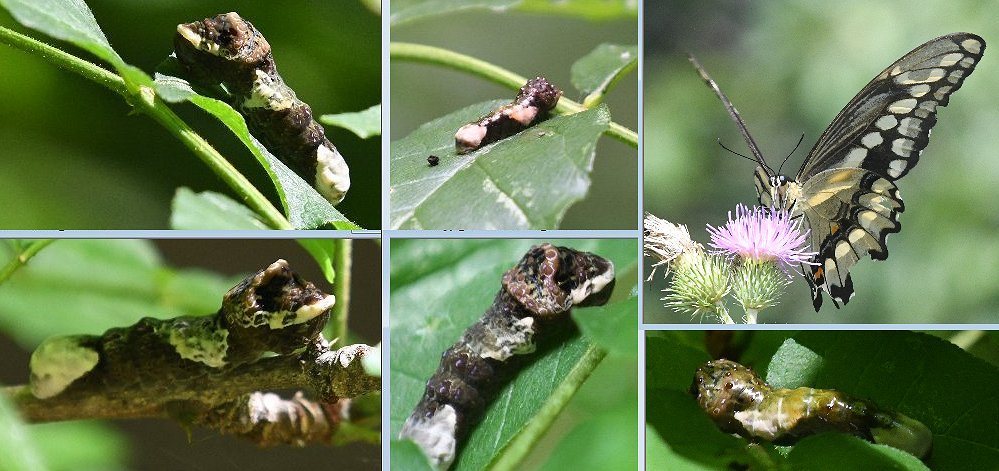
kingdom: Animalia
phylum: Arthropoda
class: Insecta
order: Lepidoptera
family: Papilionidae
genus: Papilio
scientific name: Papilio cresphontes
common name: Eastern Giant Swallowtail
